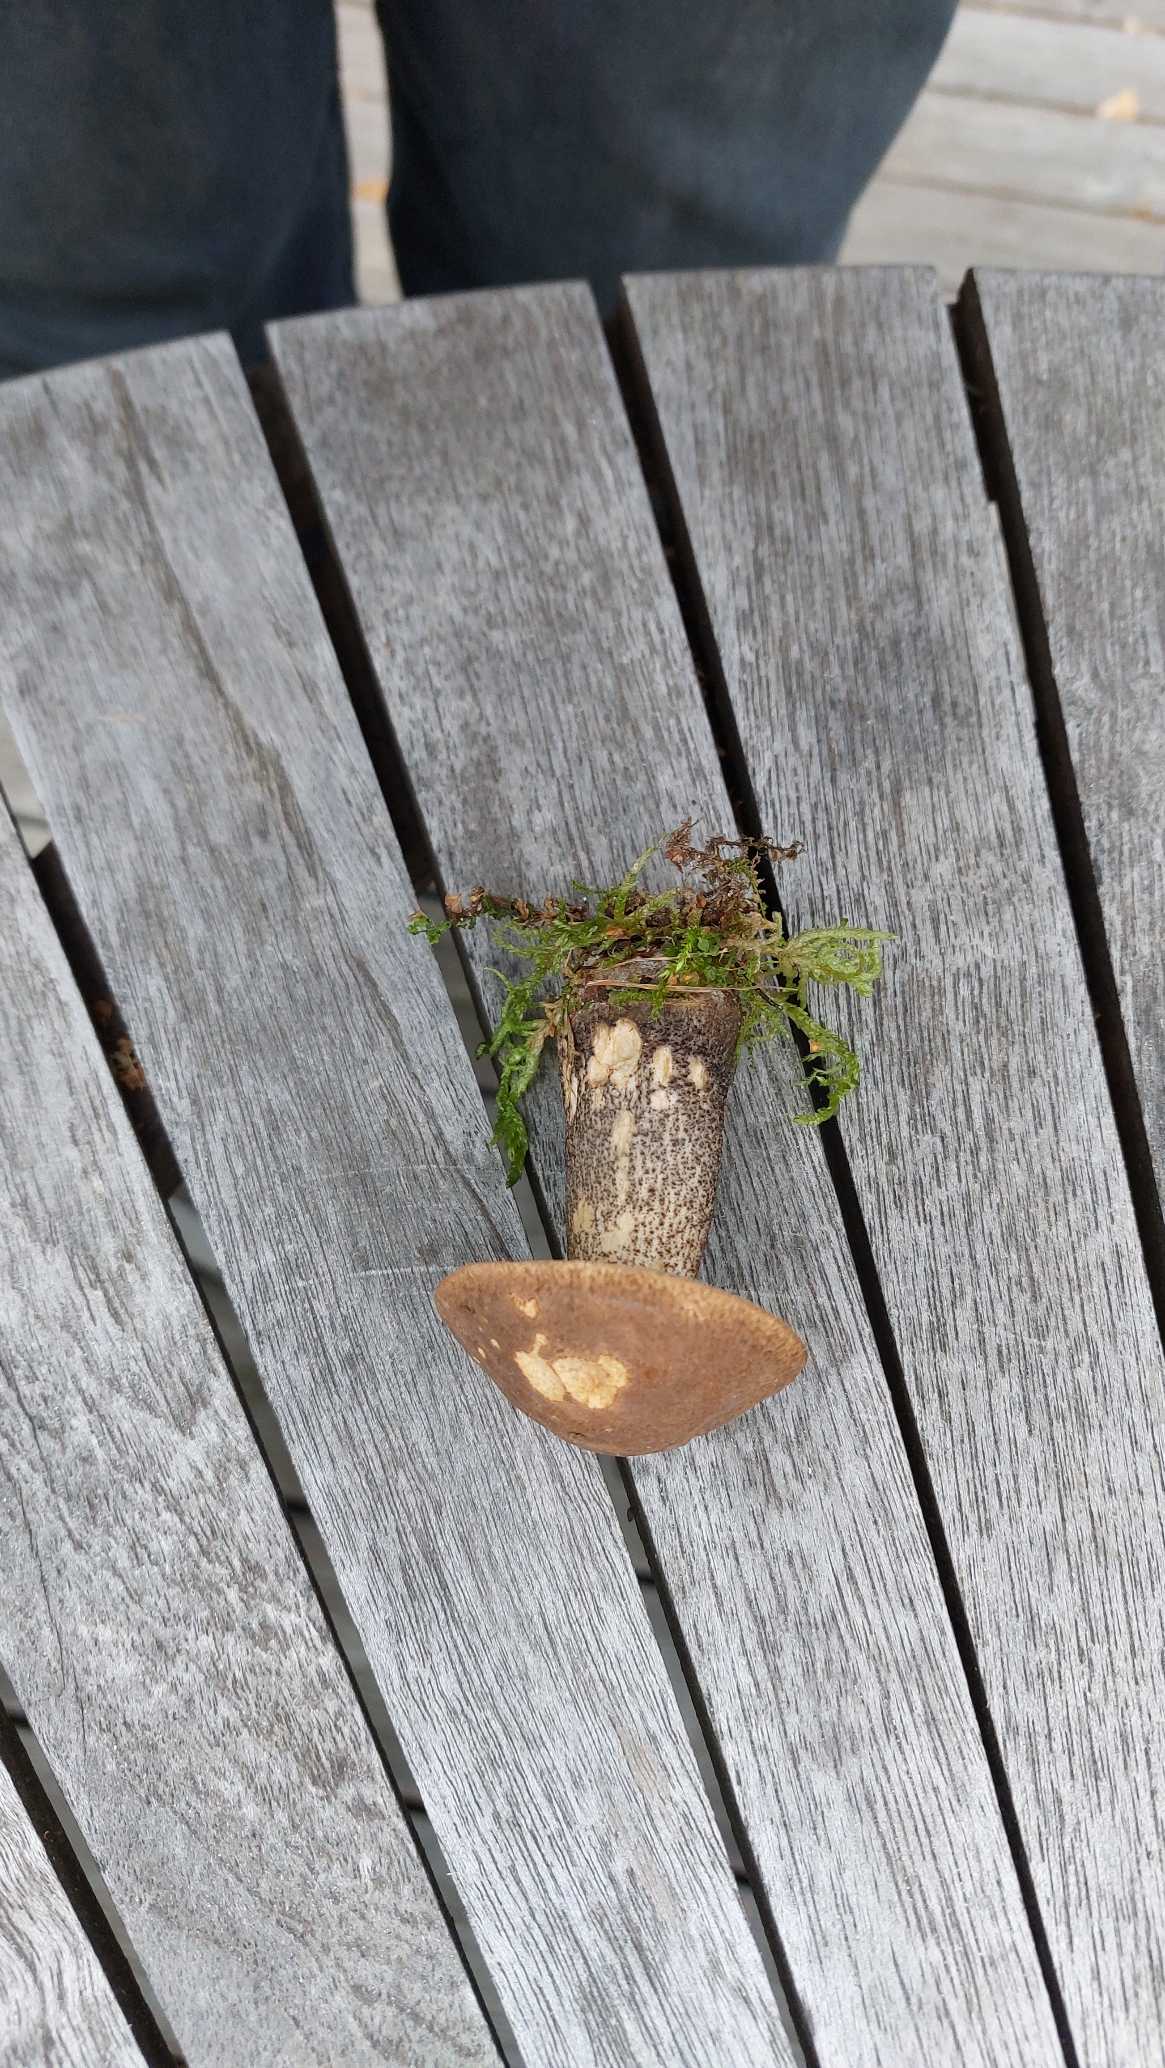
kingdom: Fungi
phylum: Basidiomycota
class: Agaricomycetes
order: Boletales
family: Boletaceae
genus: Leccinum
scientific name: Leccinum scabrum
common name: Brun skælrørhat
